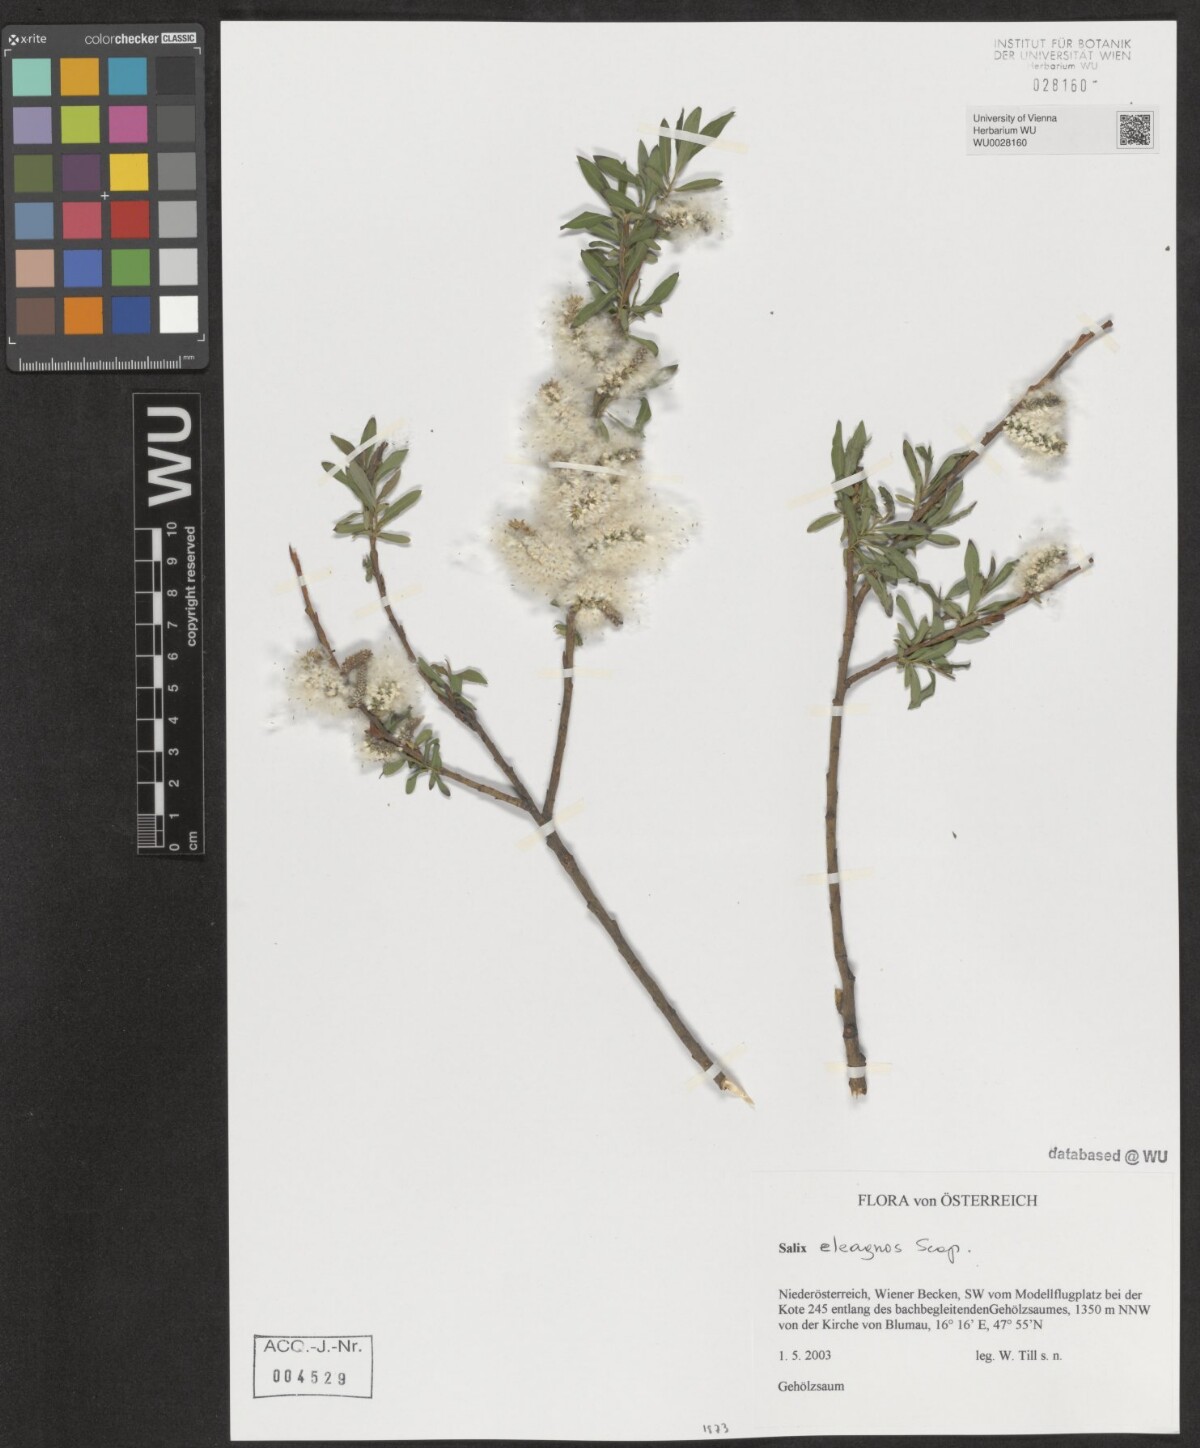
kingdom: Plantae
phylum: Tracheophyta
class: Magnoliopsida
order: Malpighiales
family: Salicaceae
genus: Salix
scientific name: Salix eleagnos
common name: Elaeagnus willow
